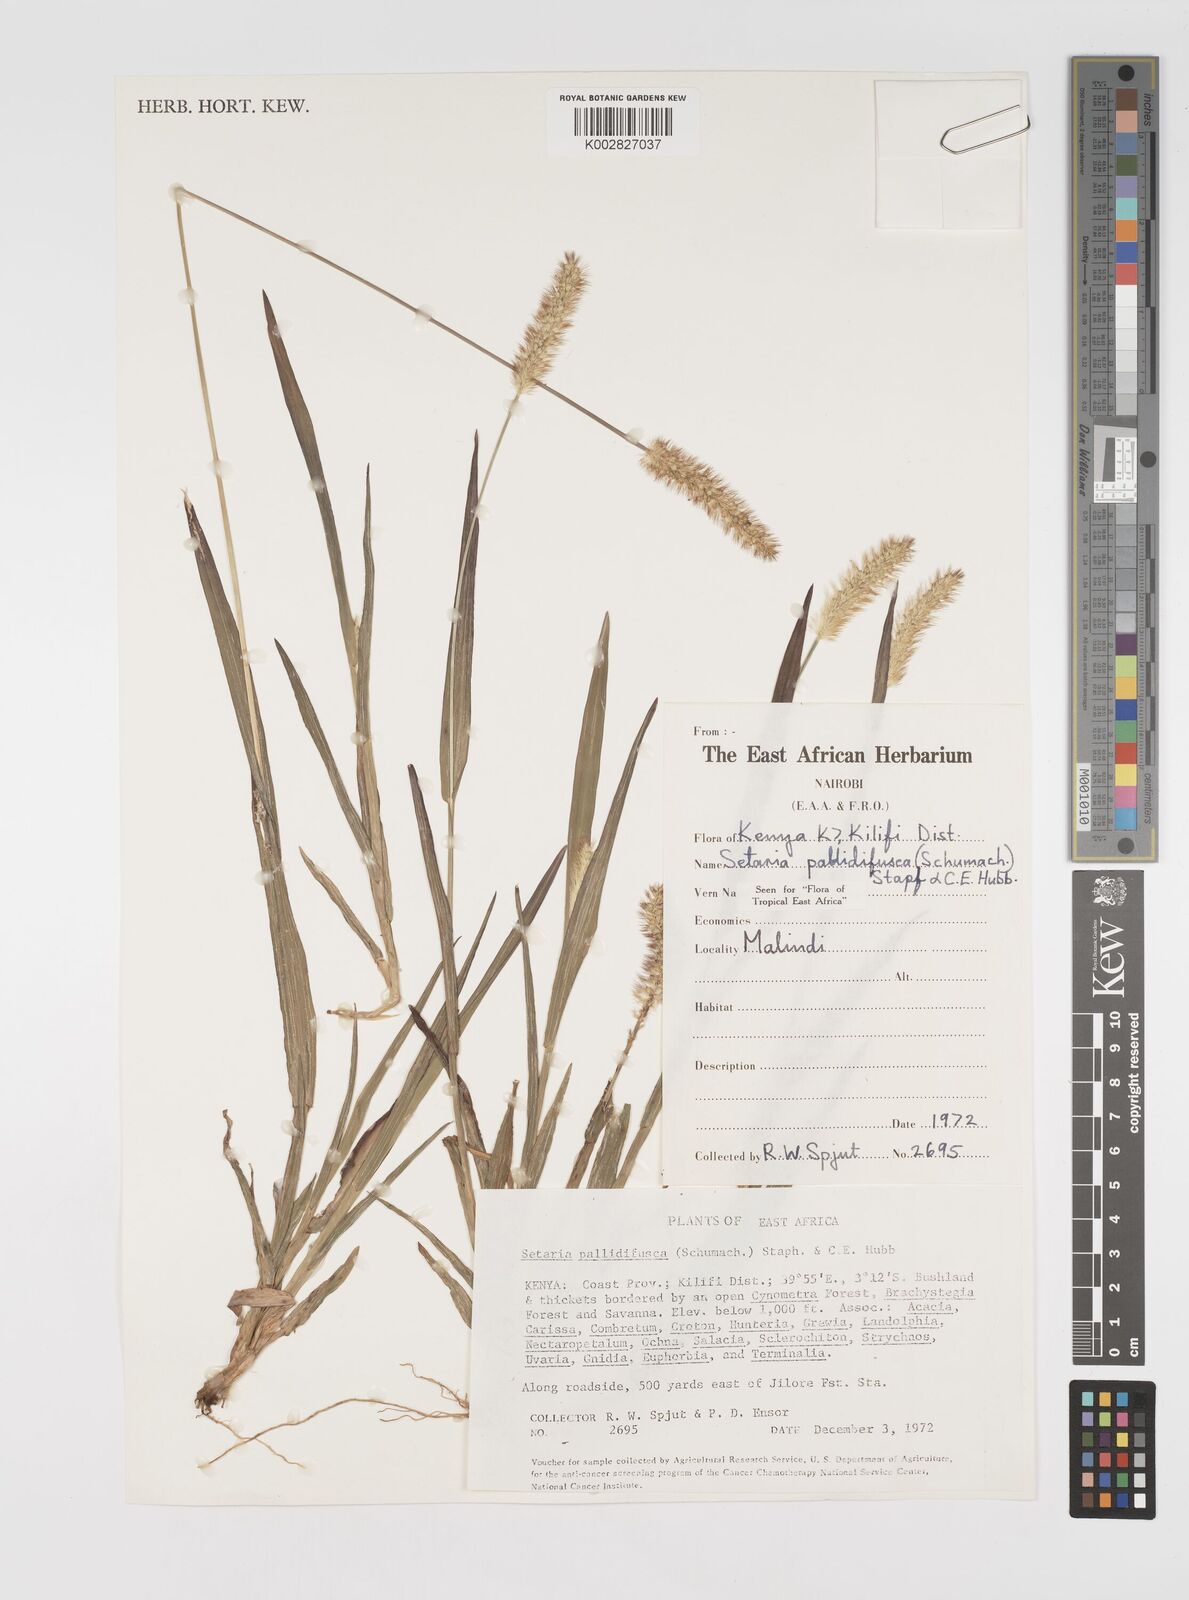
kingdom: Plantae
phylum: Tracheophyta
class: Liliopsida
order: Poales
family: Poaceae
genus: Setaria
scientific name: Setaria pumila
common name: Yellow bristle-grass
